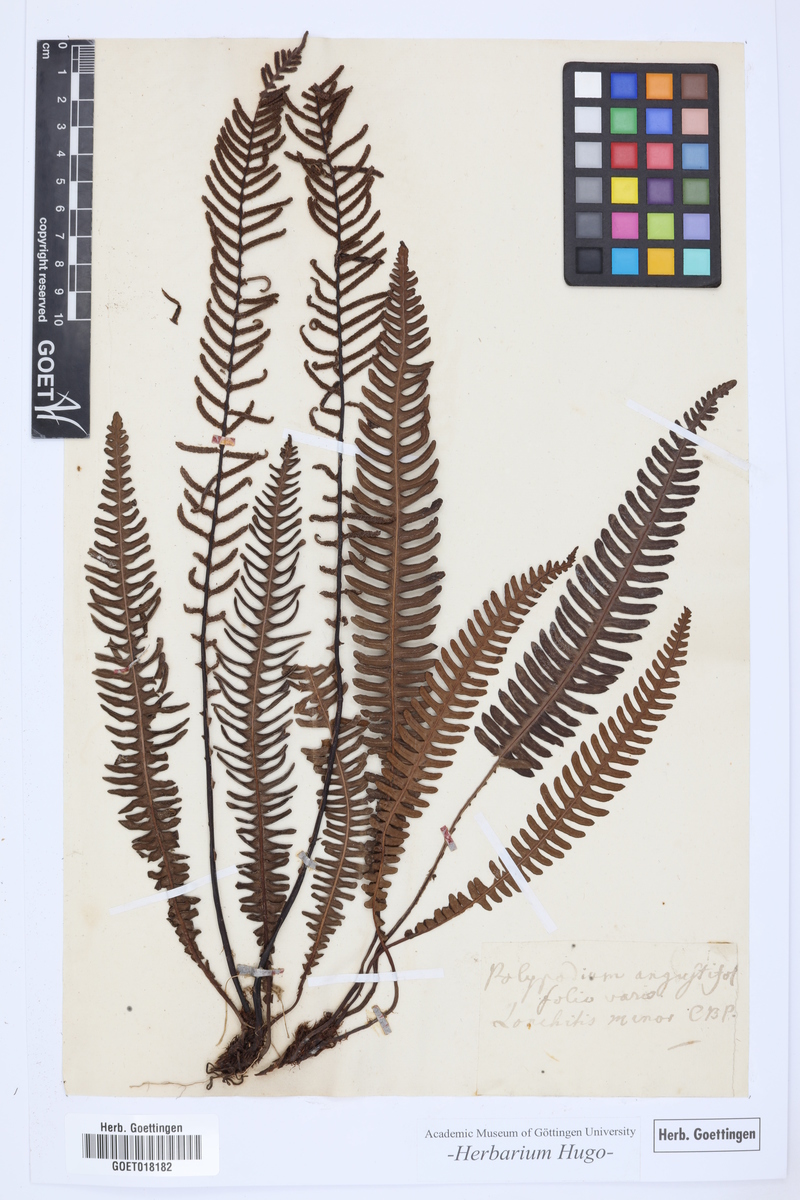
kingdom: Plantae
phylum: Tracheophyta
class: Polypodiopsida
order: Polypodiales
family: Blechnaceae
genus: Struthiopteris
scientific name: Struthiopteris spicant
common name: Deer fern
